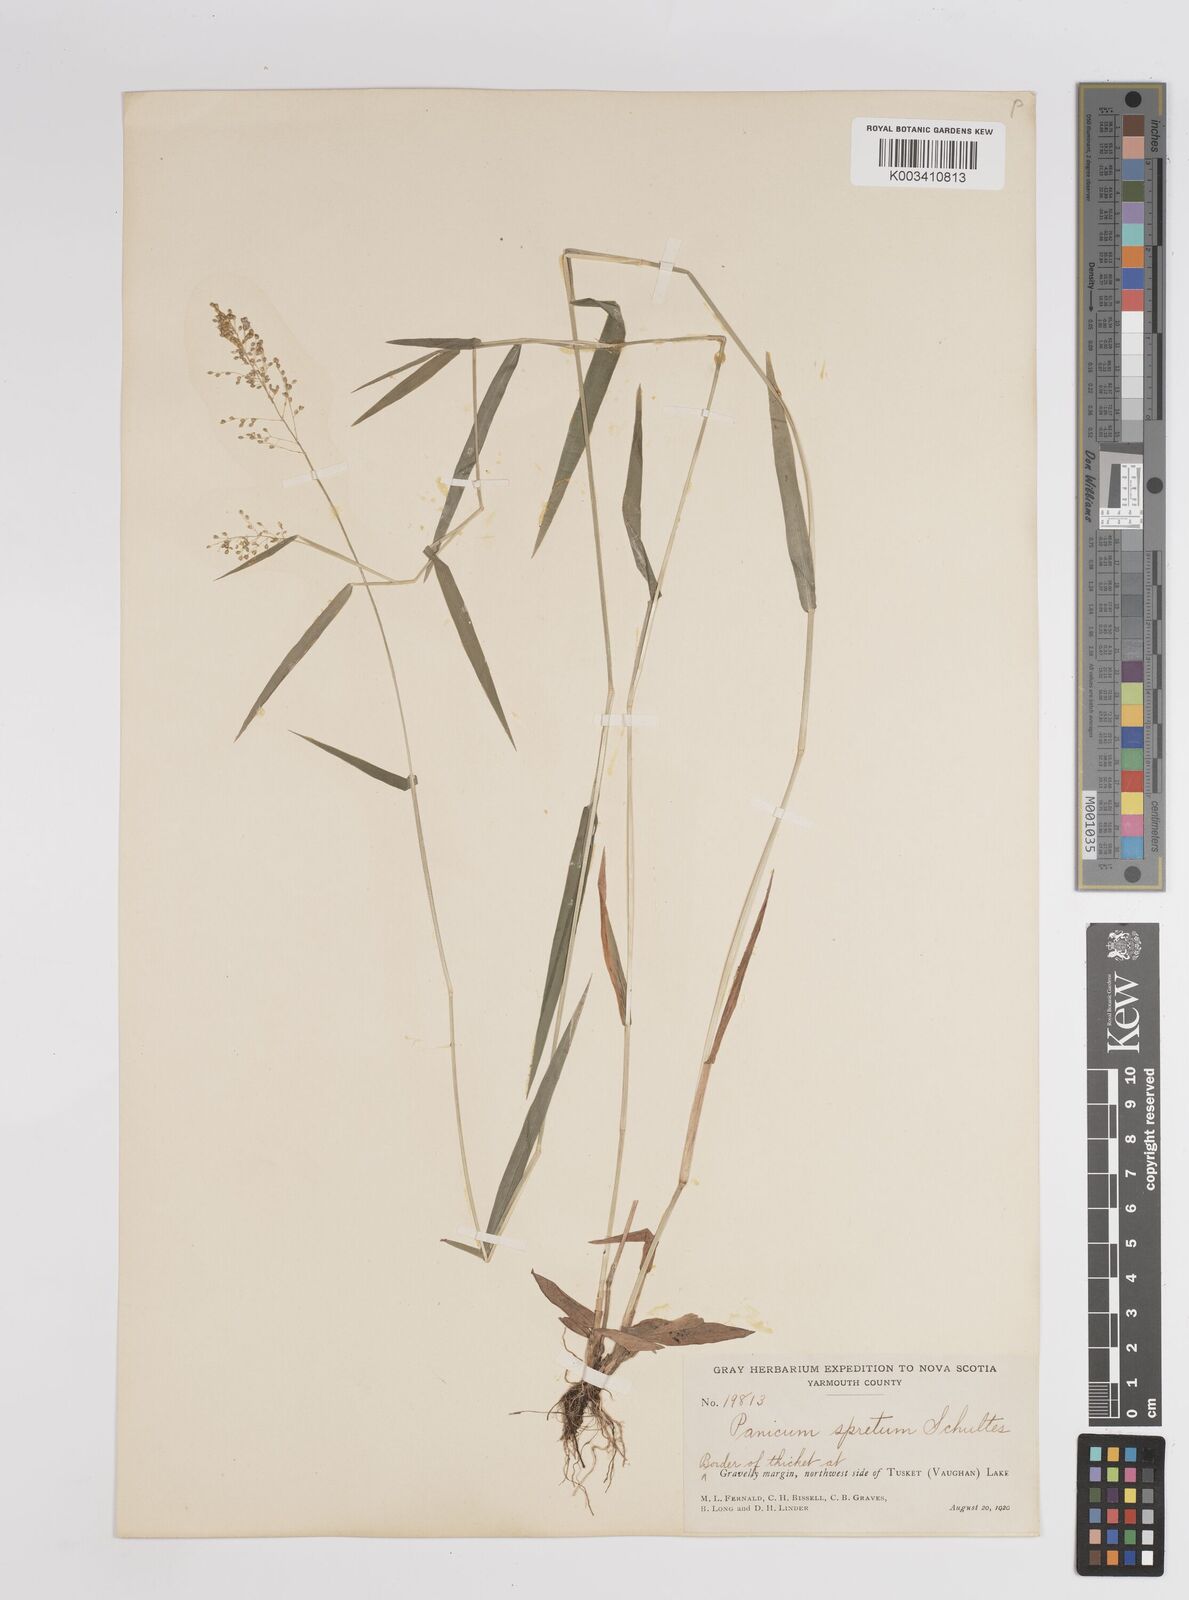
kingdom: Plantae
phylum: Tracheophyta
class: Liliopsida
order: Poales
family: Poaceae
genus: Dichanthelium
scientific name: Dichanthelium acuminatum
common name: Hairy panic grass
